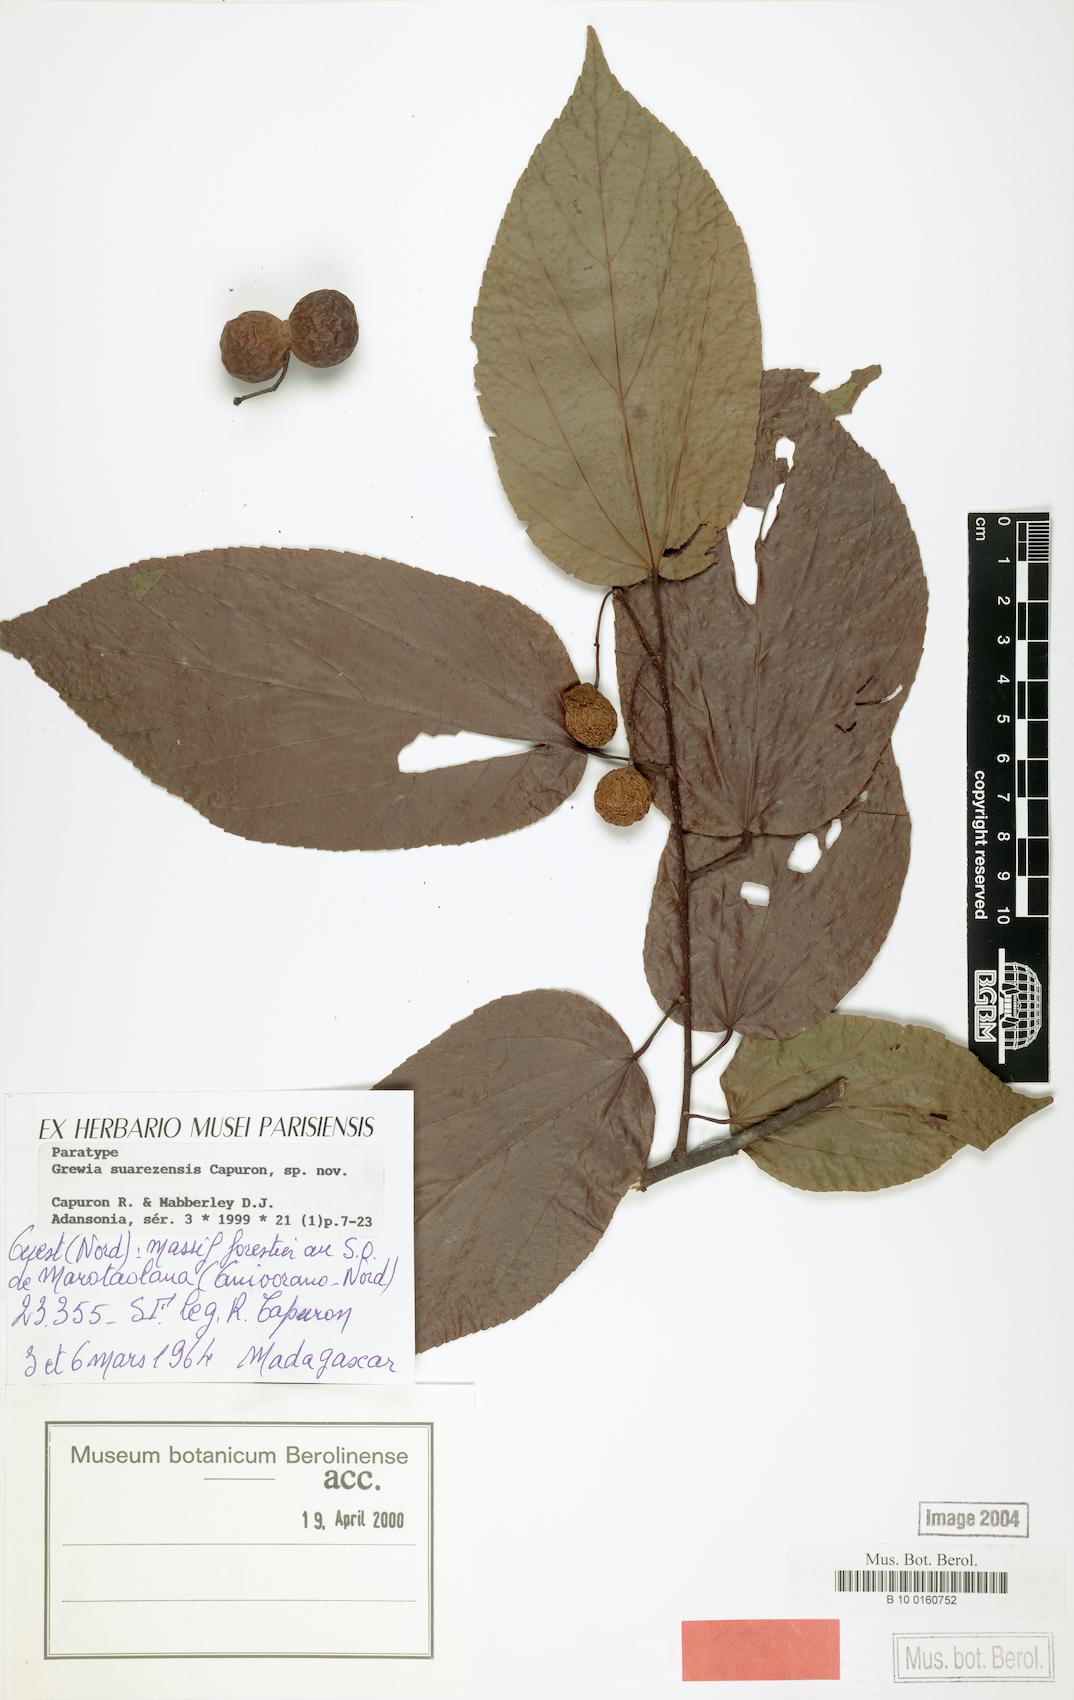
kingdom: Plantae
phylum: Tracheophyta
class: Magnoliopsida
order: Malvales
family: Malvaceae
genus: Grewia
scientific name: Grewia suarezensis
